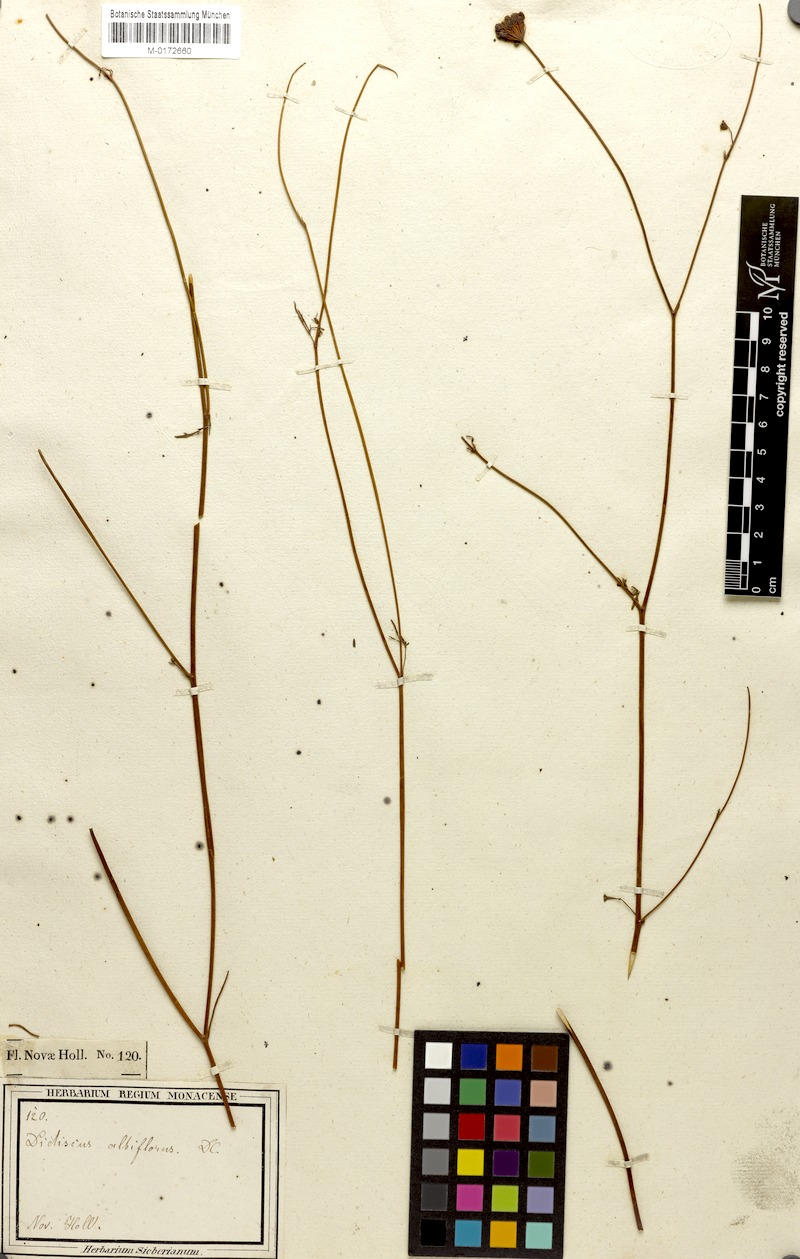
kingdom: Plantae
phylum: Tracheophyta
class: Magnoliopsida
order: Apiales
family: Araliaceae
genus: Trachymene
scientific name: Trachymene incisa
